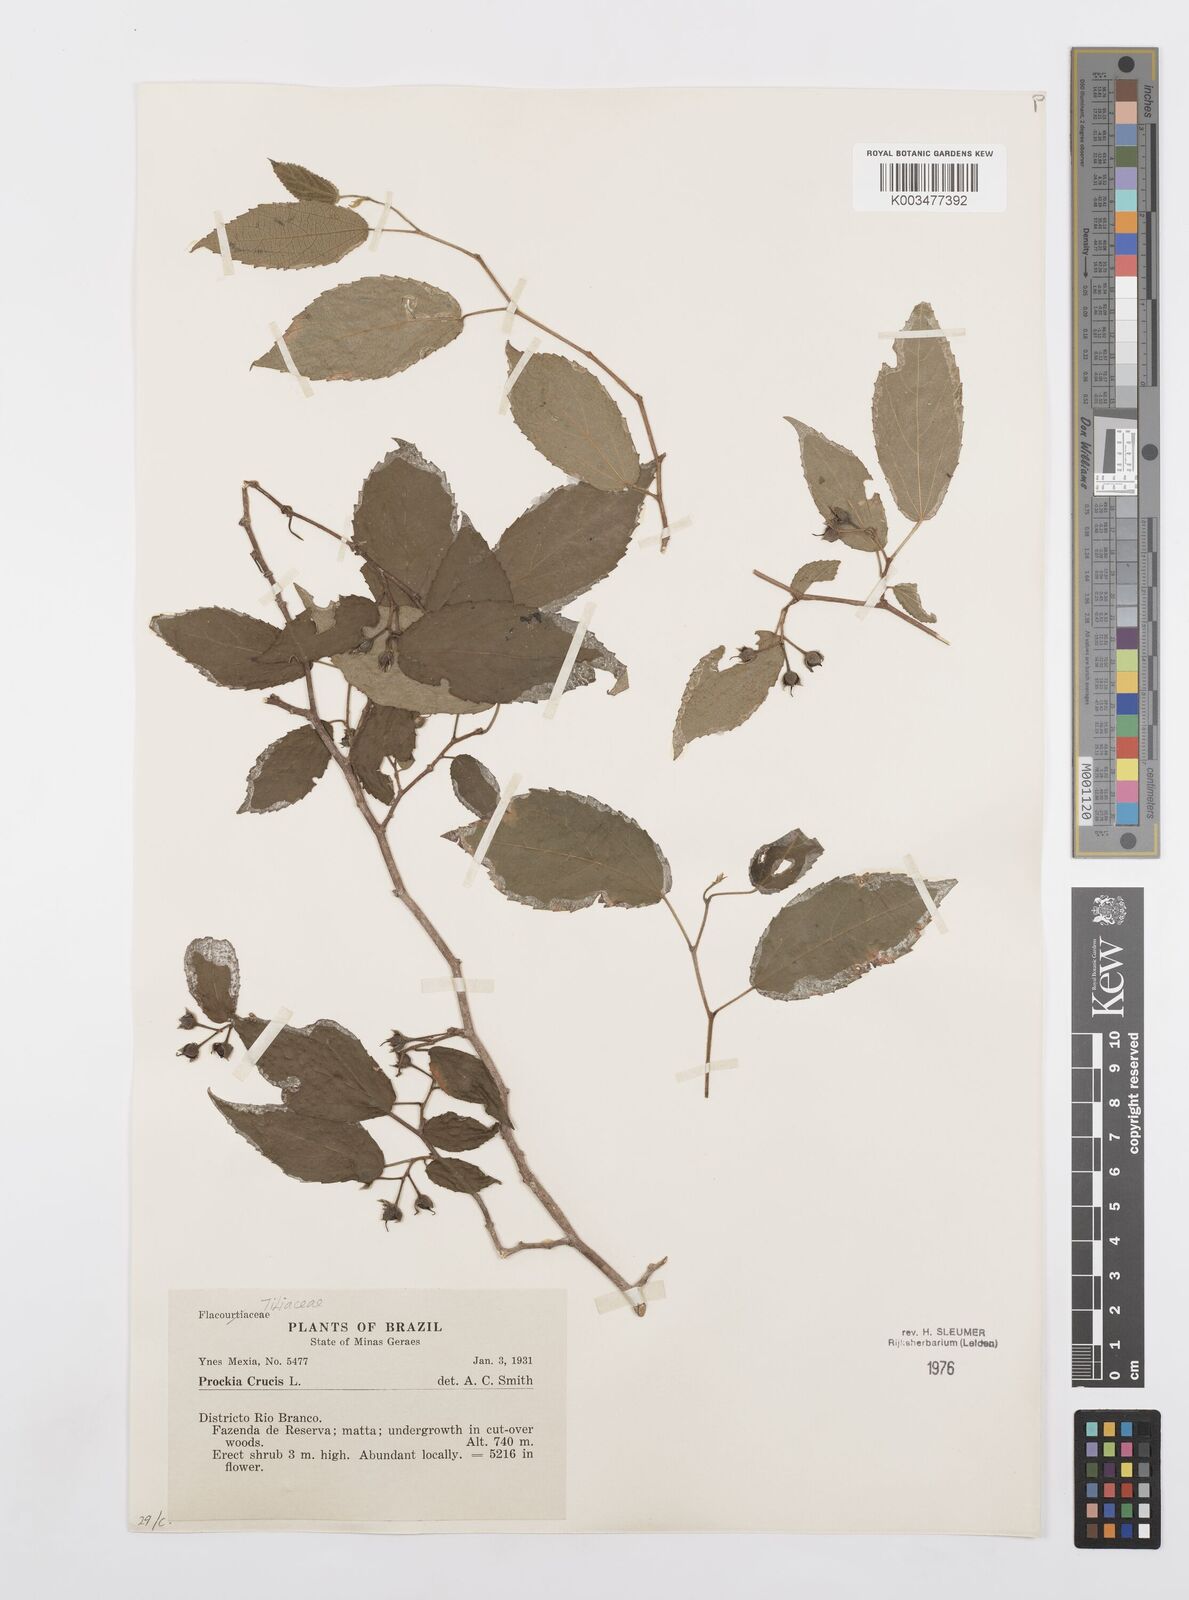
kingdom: Plantae
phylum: Tracheophyta
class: Magnoliopsida
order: Malpighiales
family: Salicaceae
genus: Prockia
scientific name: Prockia crucis
